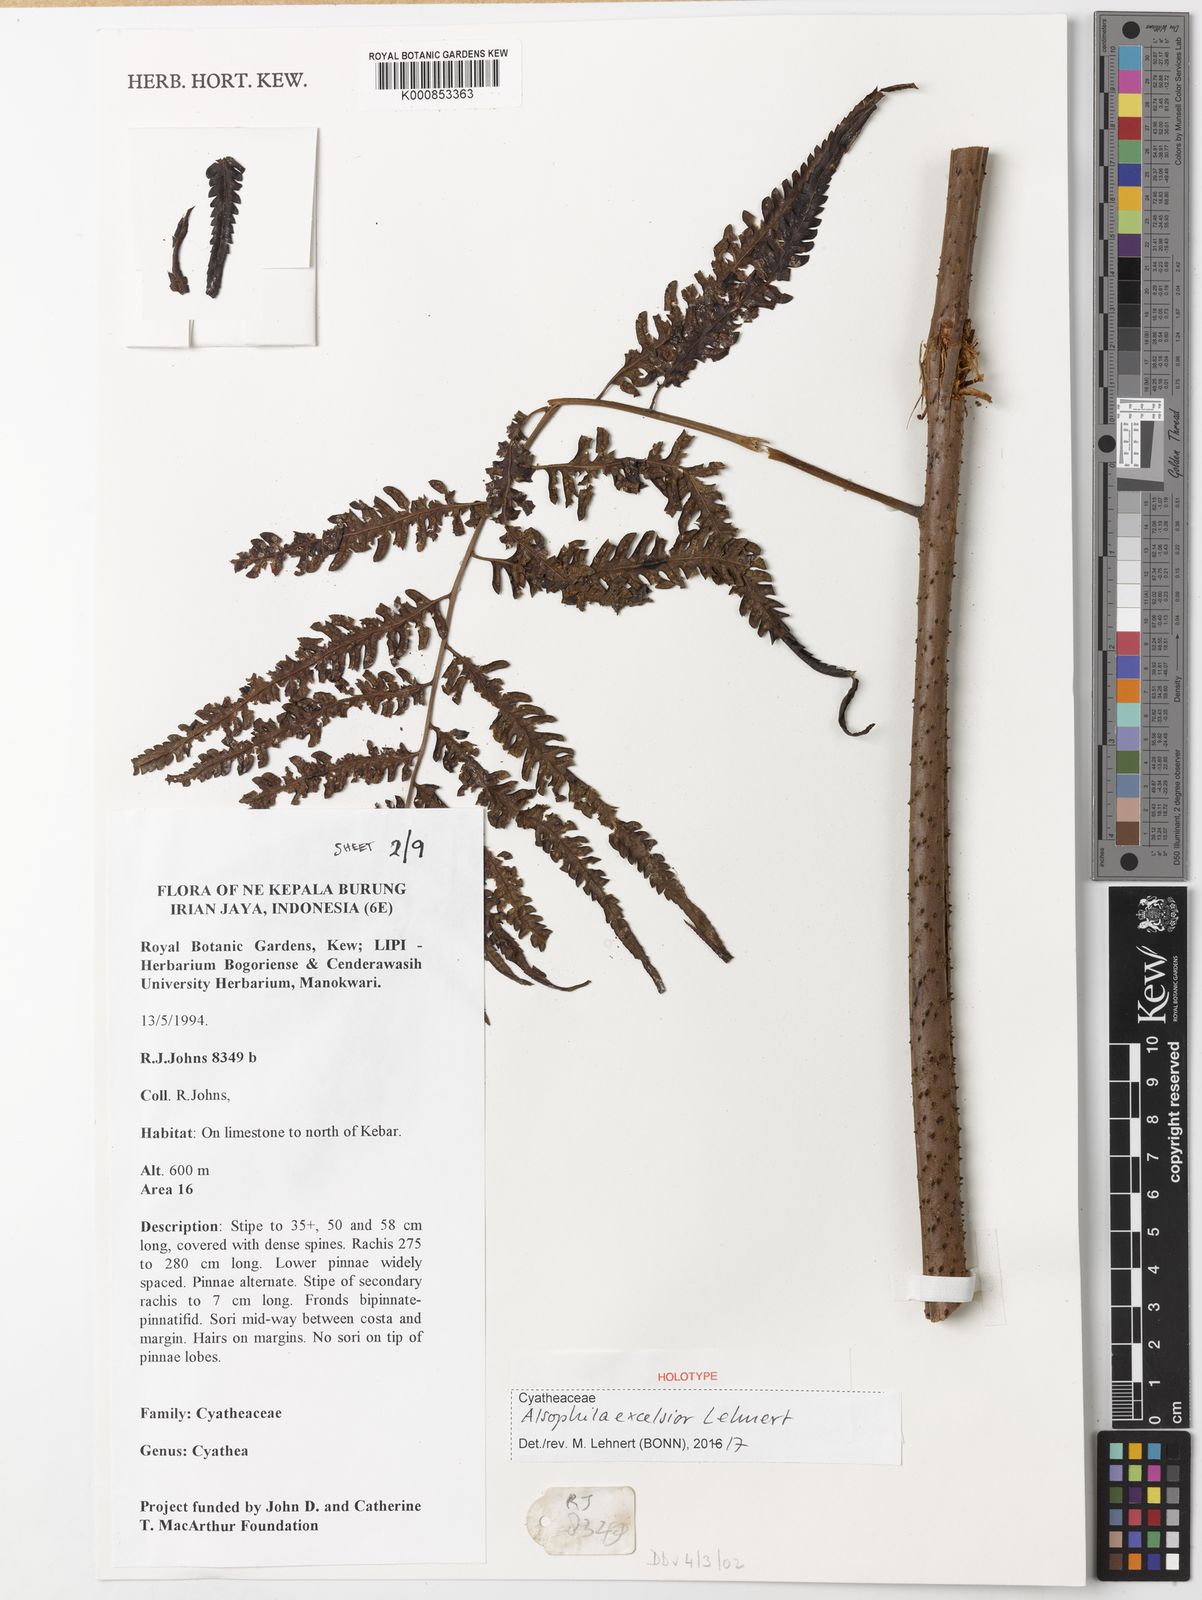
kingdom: Plantae
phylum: Tracheophyta
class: Polypodiopsida
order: Cyatheales
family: Cyatheaceae
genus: Alsophila
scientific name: Alsophila excelsior
